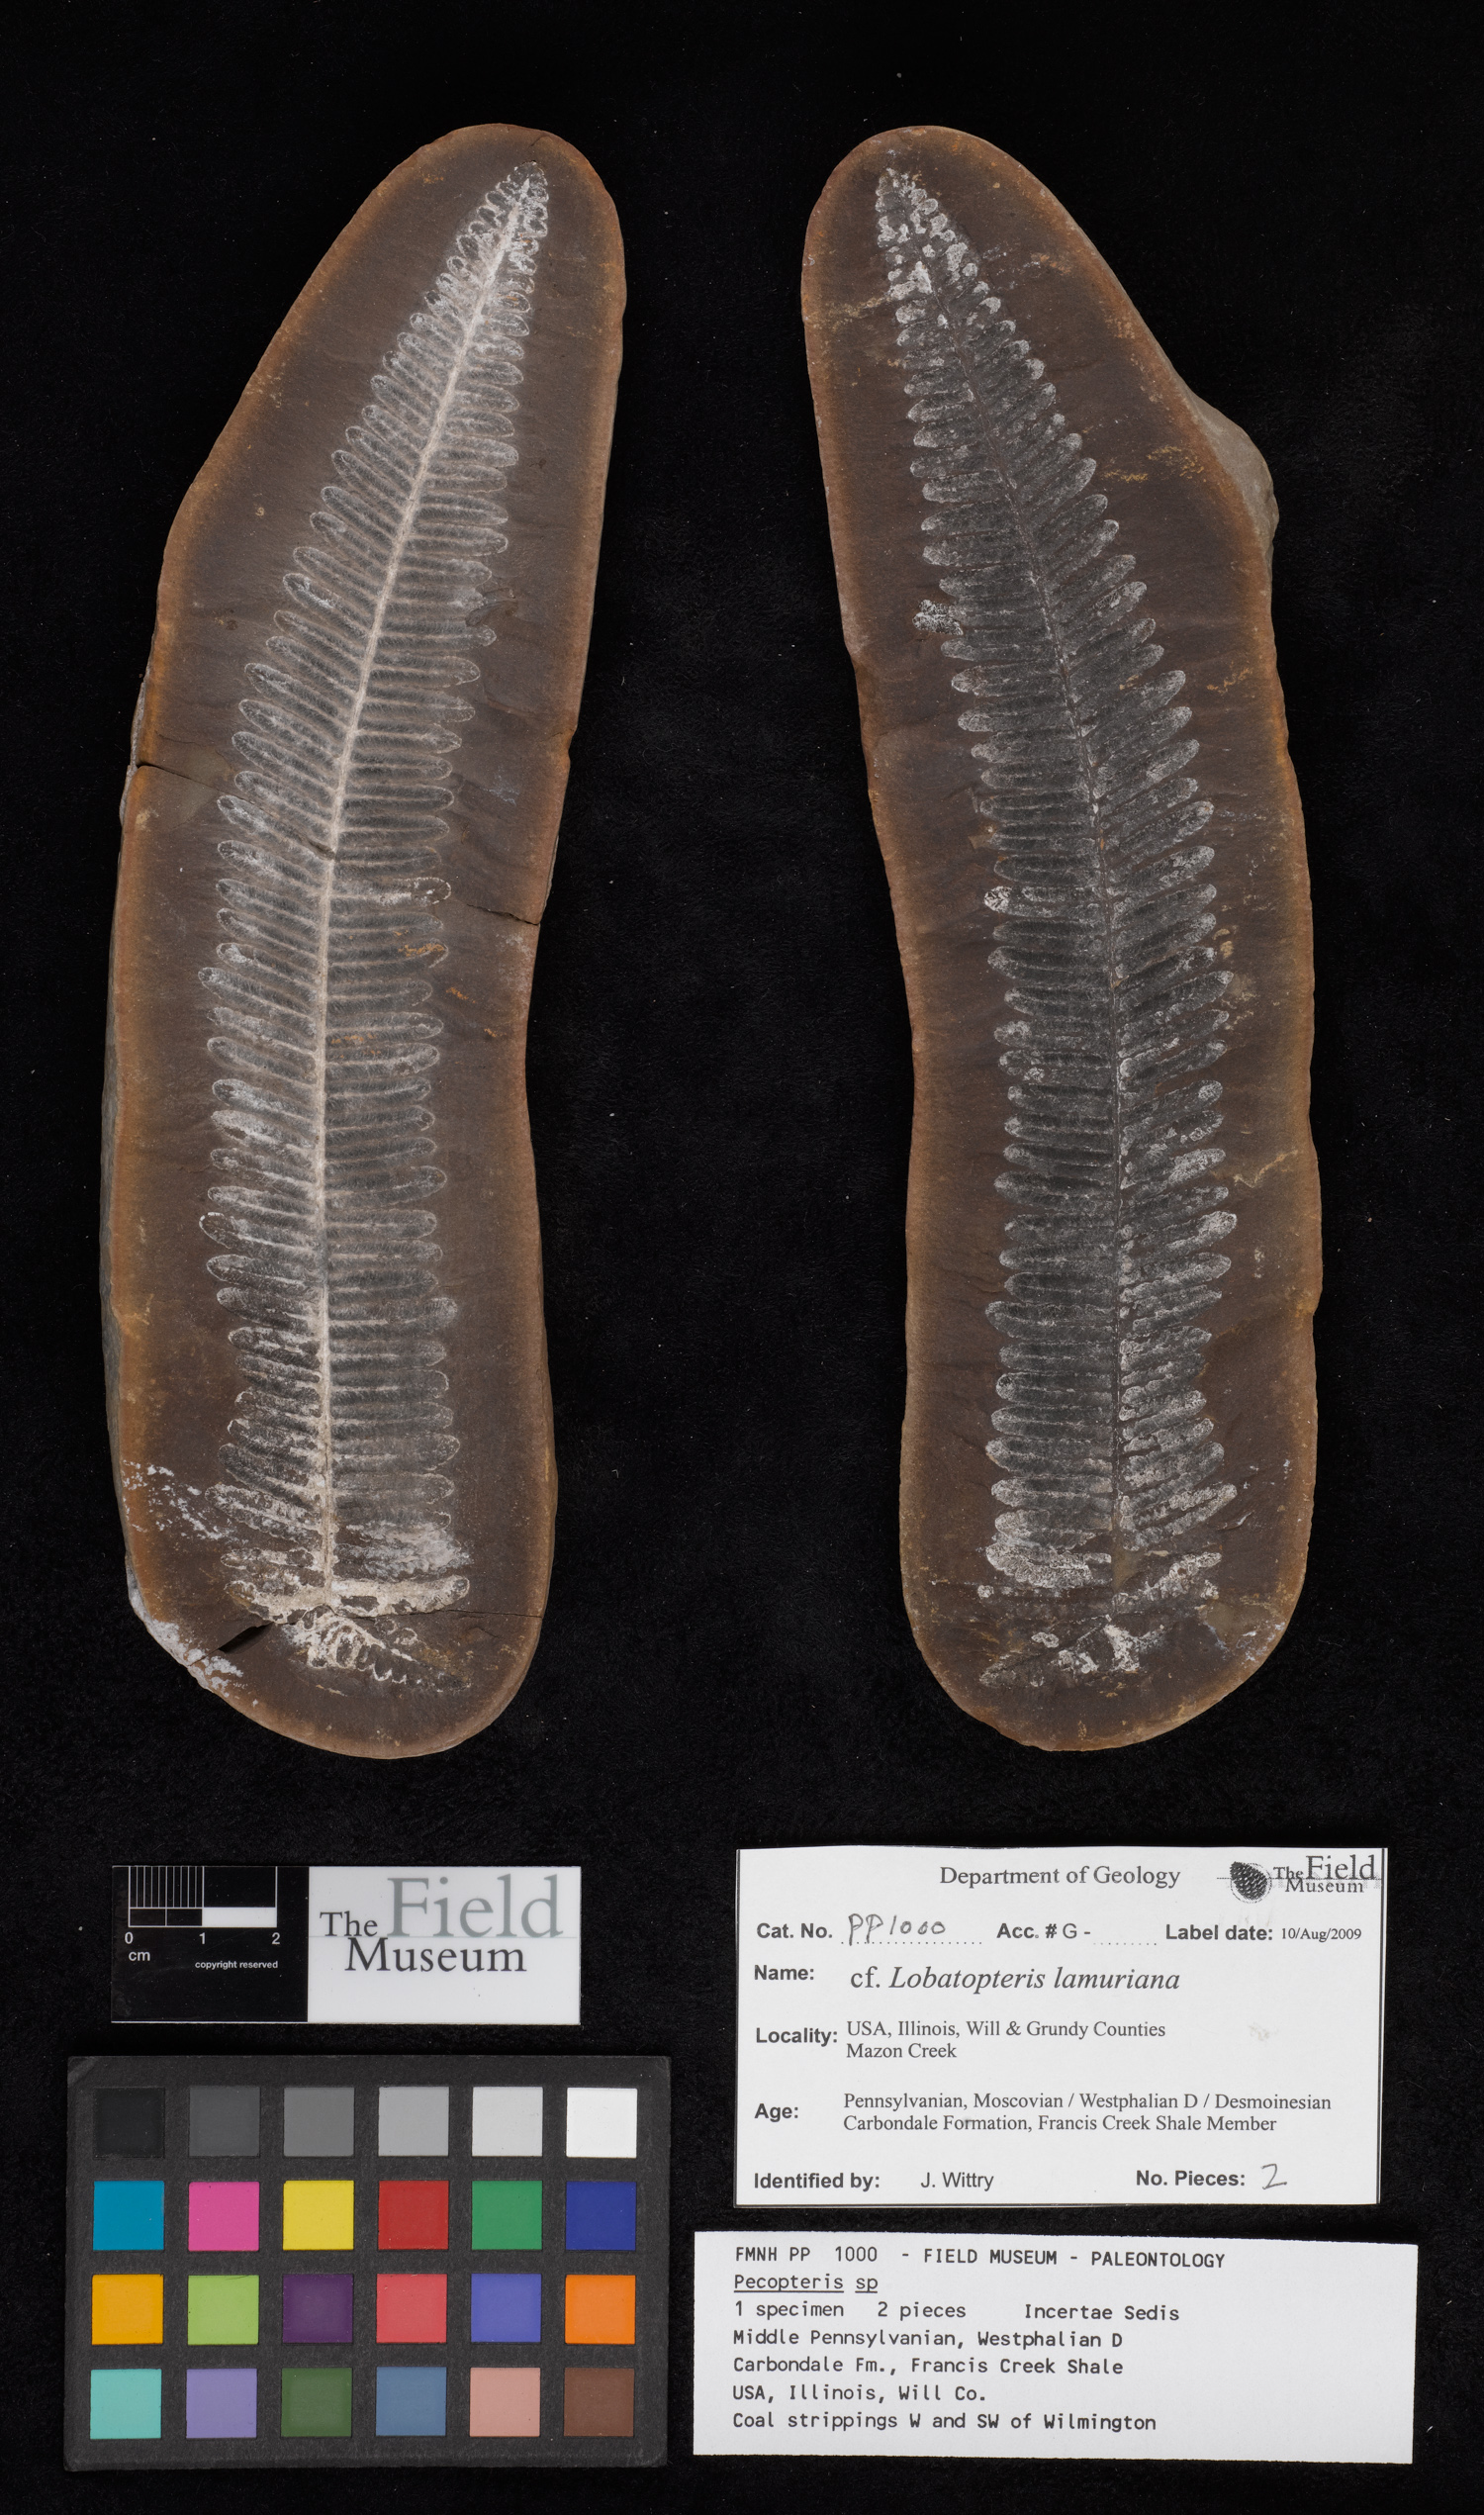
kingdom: Plantae
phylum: Tracheophyta
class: Polypodiopsida
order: Marattiales
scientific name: Marattiales
